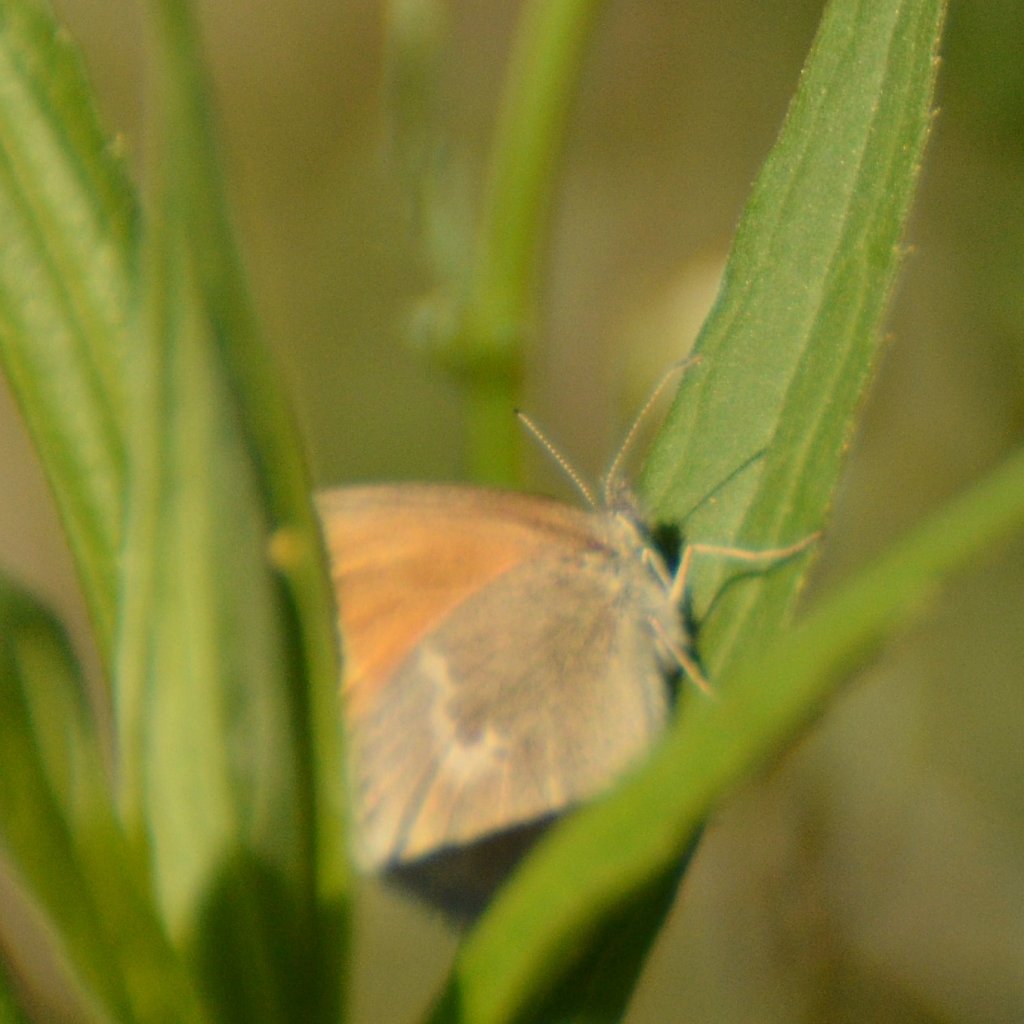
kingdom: Animalia
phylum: Arthropoda
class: Insecta
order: Lepidoptera
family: Nymphalidae
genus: Coenonympha
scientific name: Coenonympha tullia
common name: Large Heath
